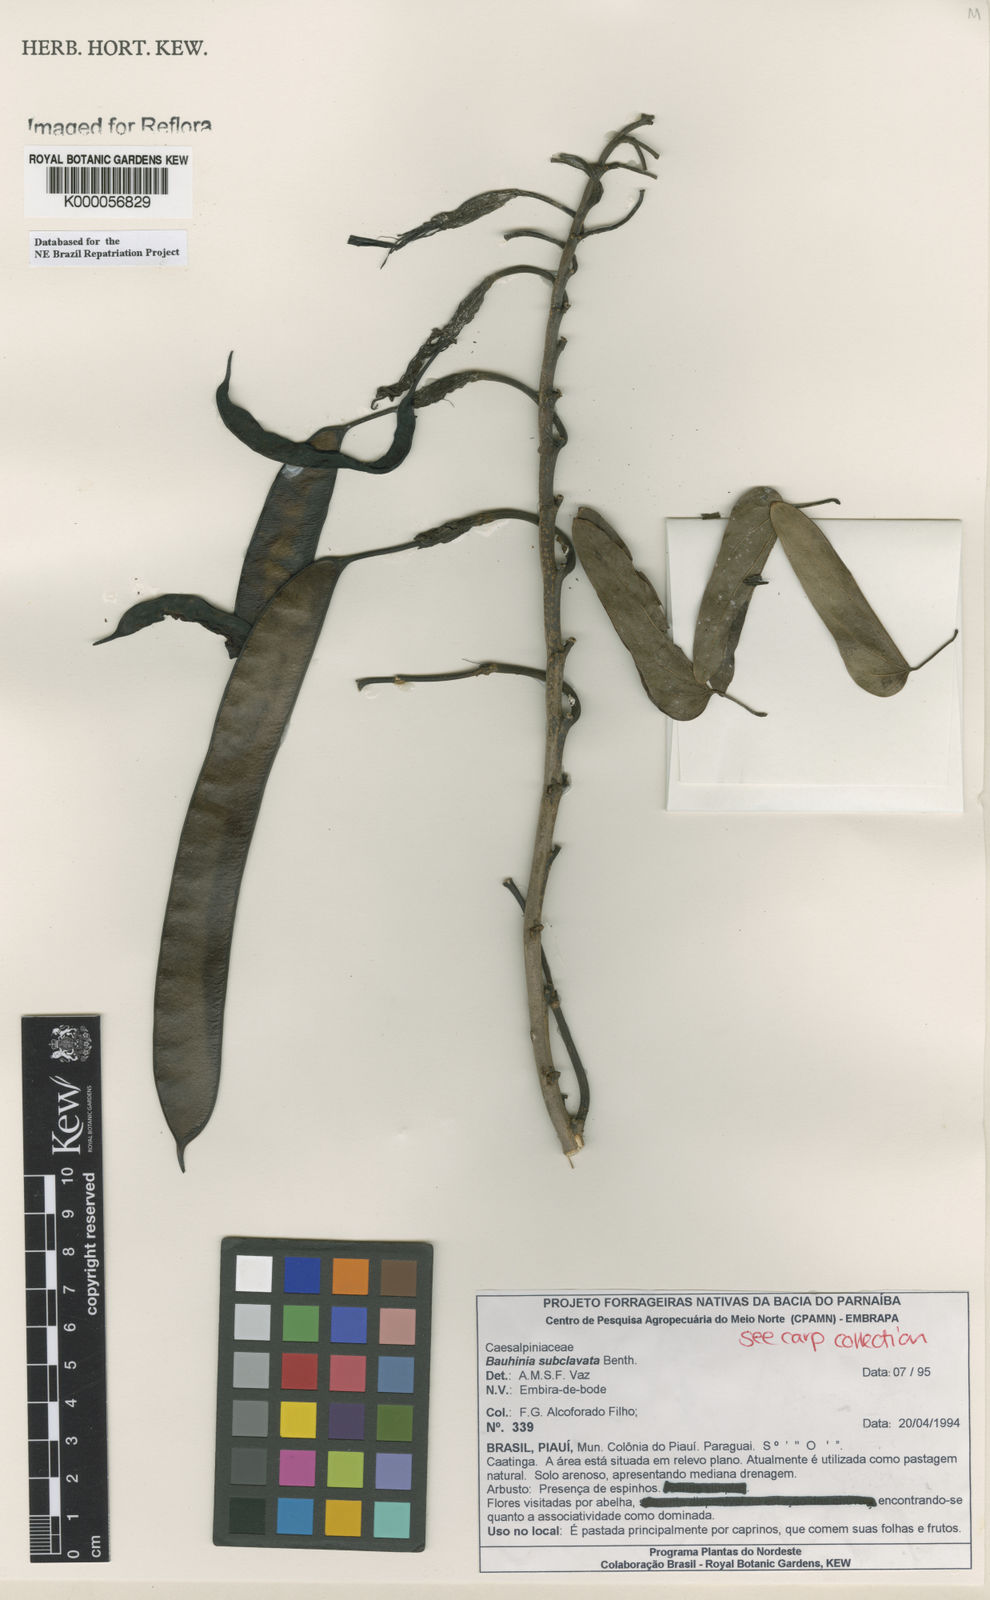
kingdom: Plantae
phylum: Tracheophyta
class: Magnoliopsida
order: Fabales
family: Fabaceae
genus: Bauhinia
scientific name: Bauhinia subclavata
